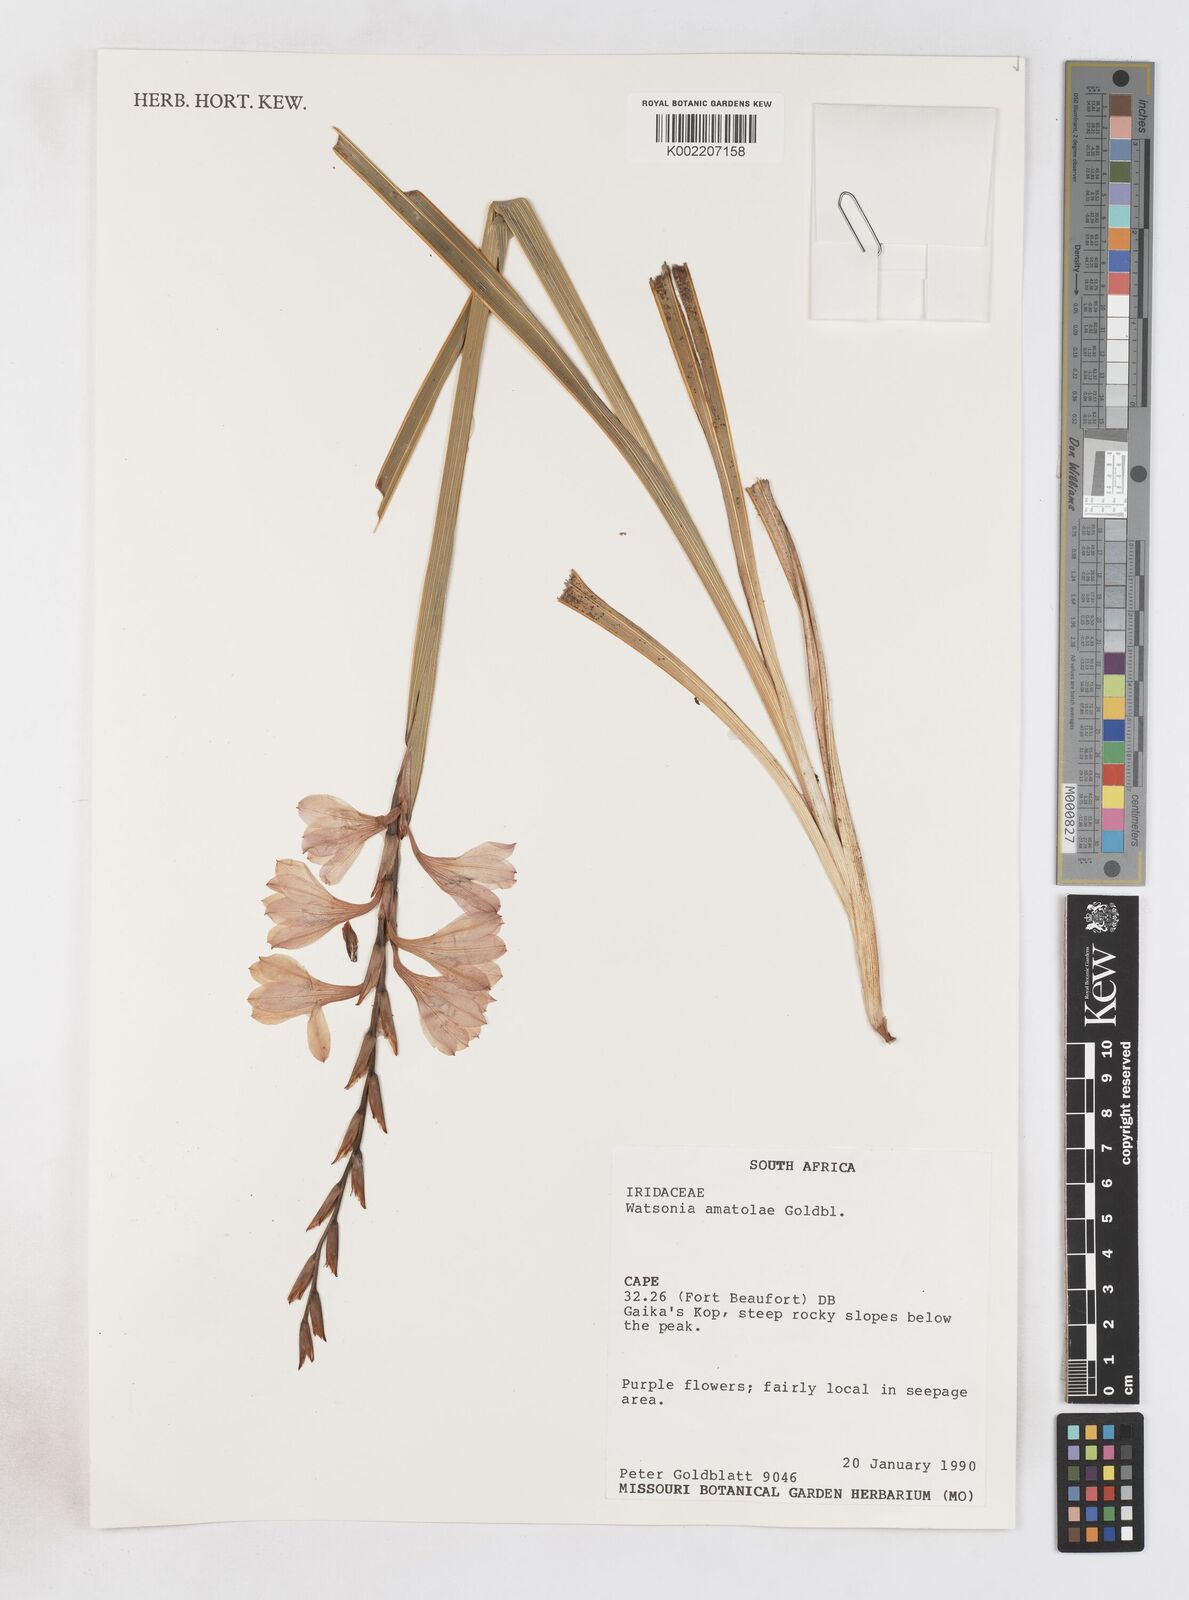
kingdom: Plantae
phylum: Tracheophyta
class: Liliopsida
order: Asparagales
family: Iridaceae
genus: Watsonia
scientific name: Watsonia amatolae
